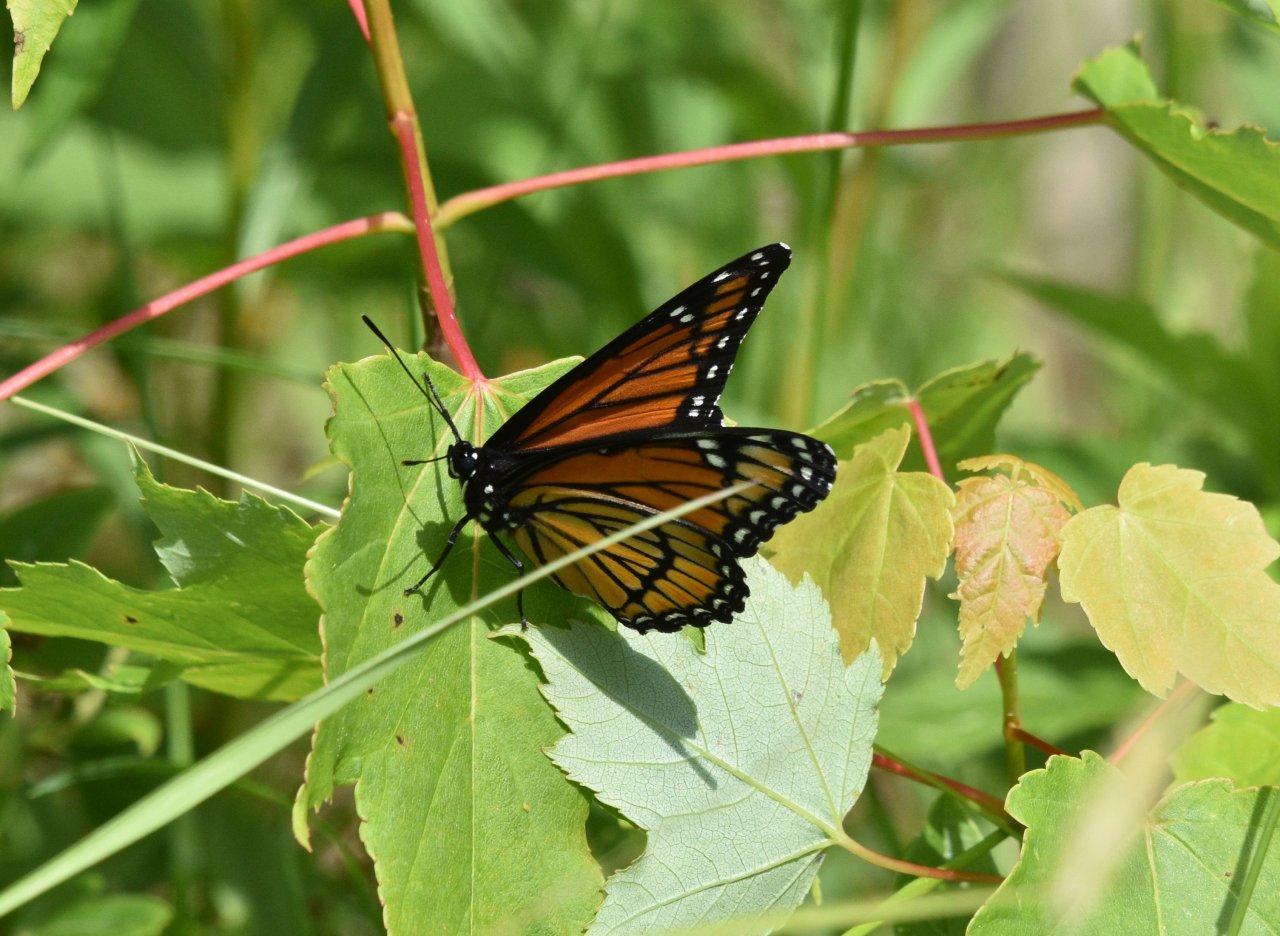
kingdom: Animalia
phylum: Arthropoda
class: Insecta
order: Lepidoptera
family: Nymphalidae
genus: Limenitis
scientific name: Limenitis archippus
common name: Viceroy
